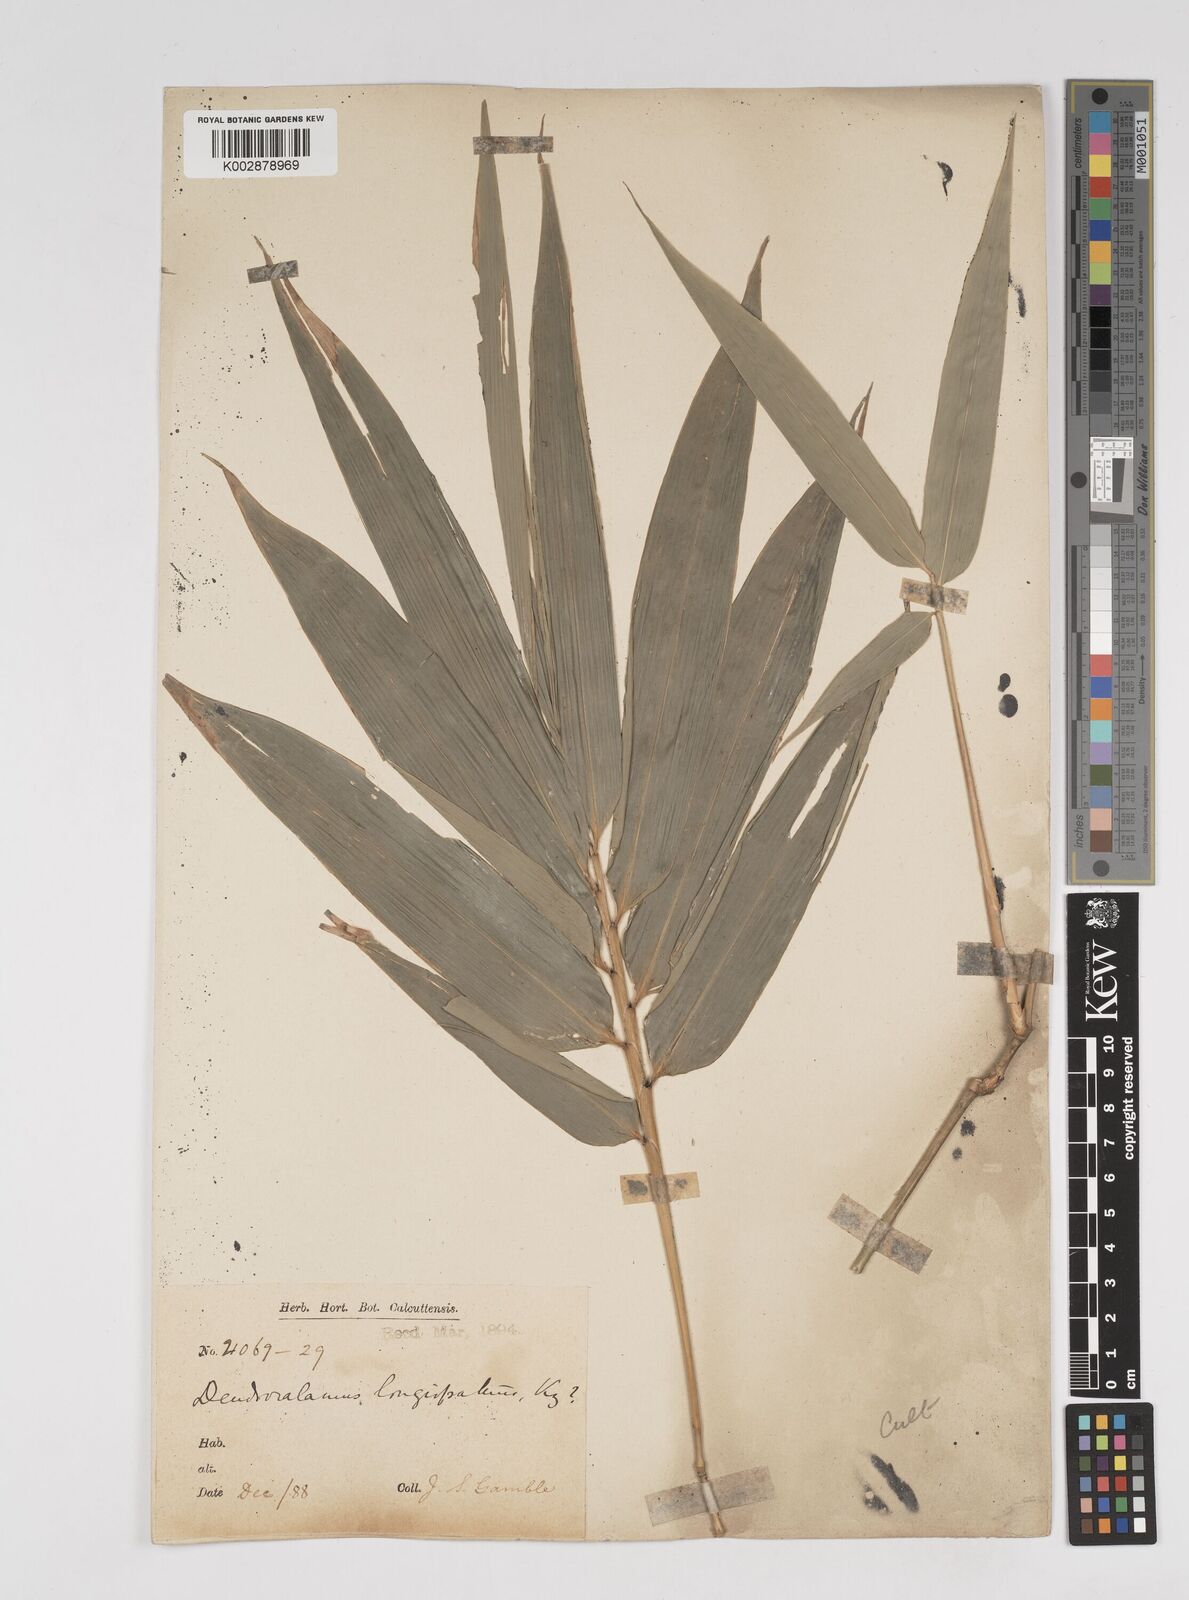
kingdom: Plantae
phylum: Tracheophyta
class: Liliopsida
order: Poales
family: Poaceae
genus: Dendrocalamus
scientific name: Dendrocalamus longispathus
